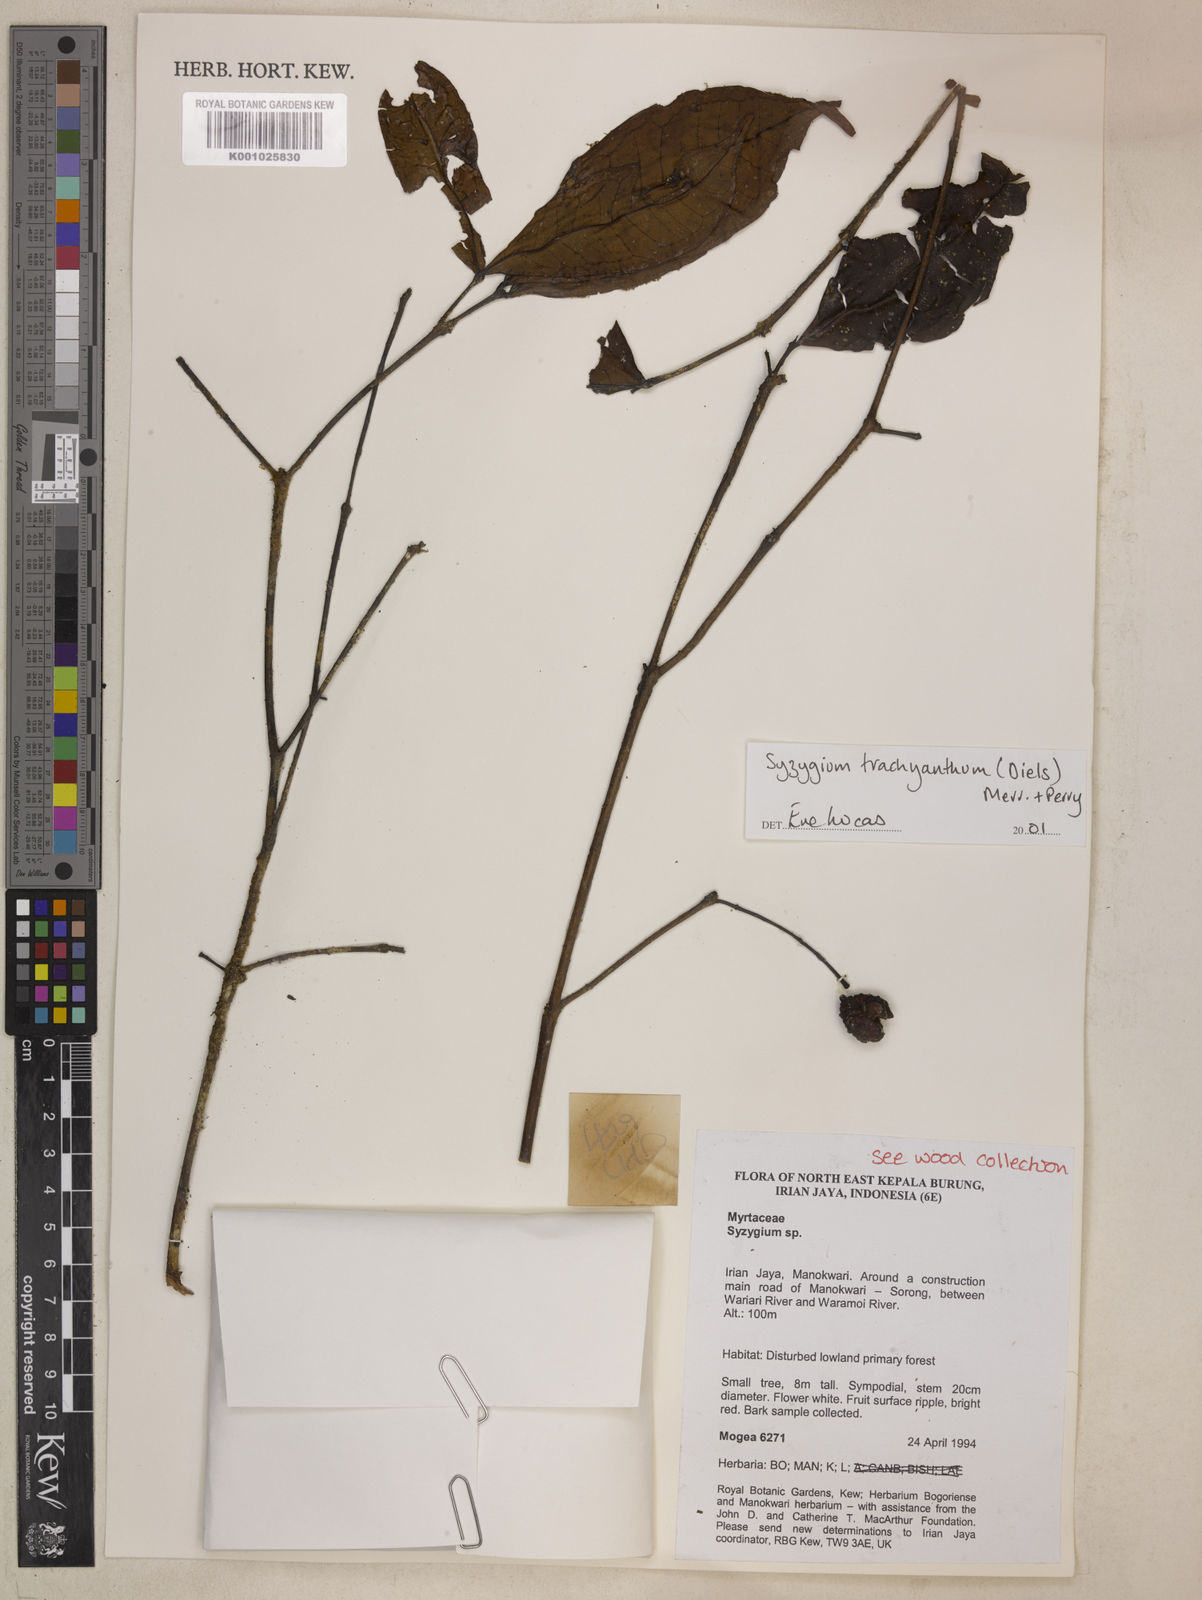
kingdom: Plantae
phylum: Tracheophyta
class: Magnoliopsida
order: Myrtales
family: Myrtaceae
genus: Syzygium
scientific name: Syzygium trachyanthum
